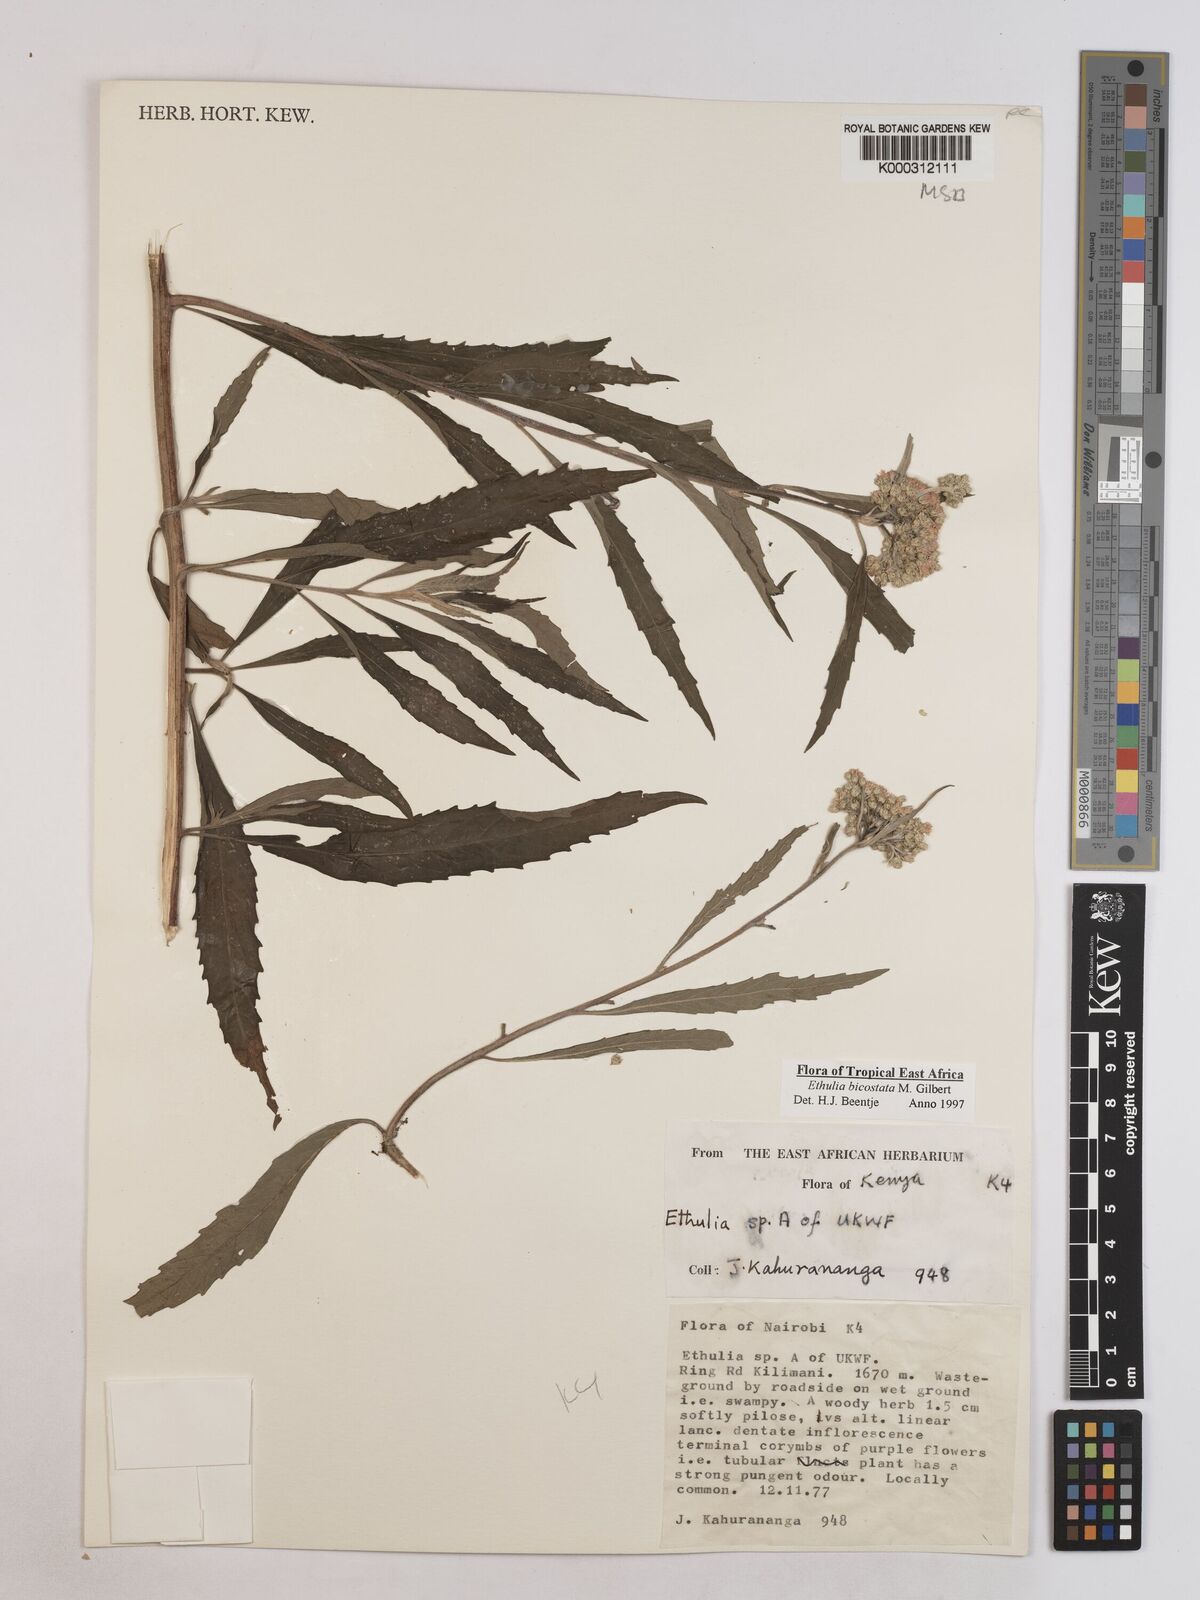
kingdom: Plantae
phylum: Tracheophyta
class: Magnoliopsida
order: Asterales
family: Asteraceae
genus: Ethulia
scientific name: Ethulia bicostata
